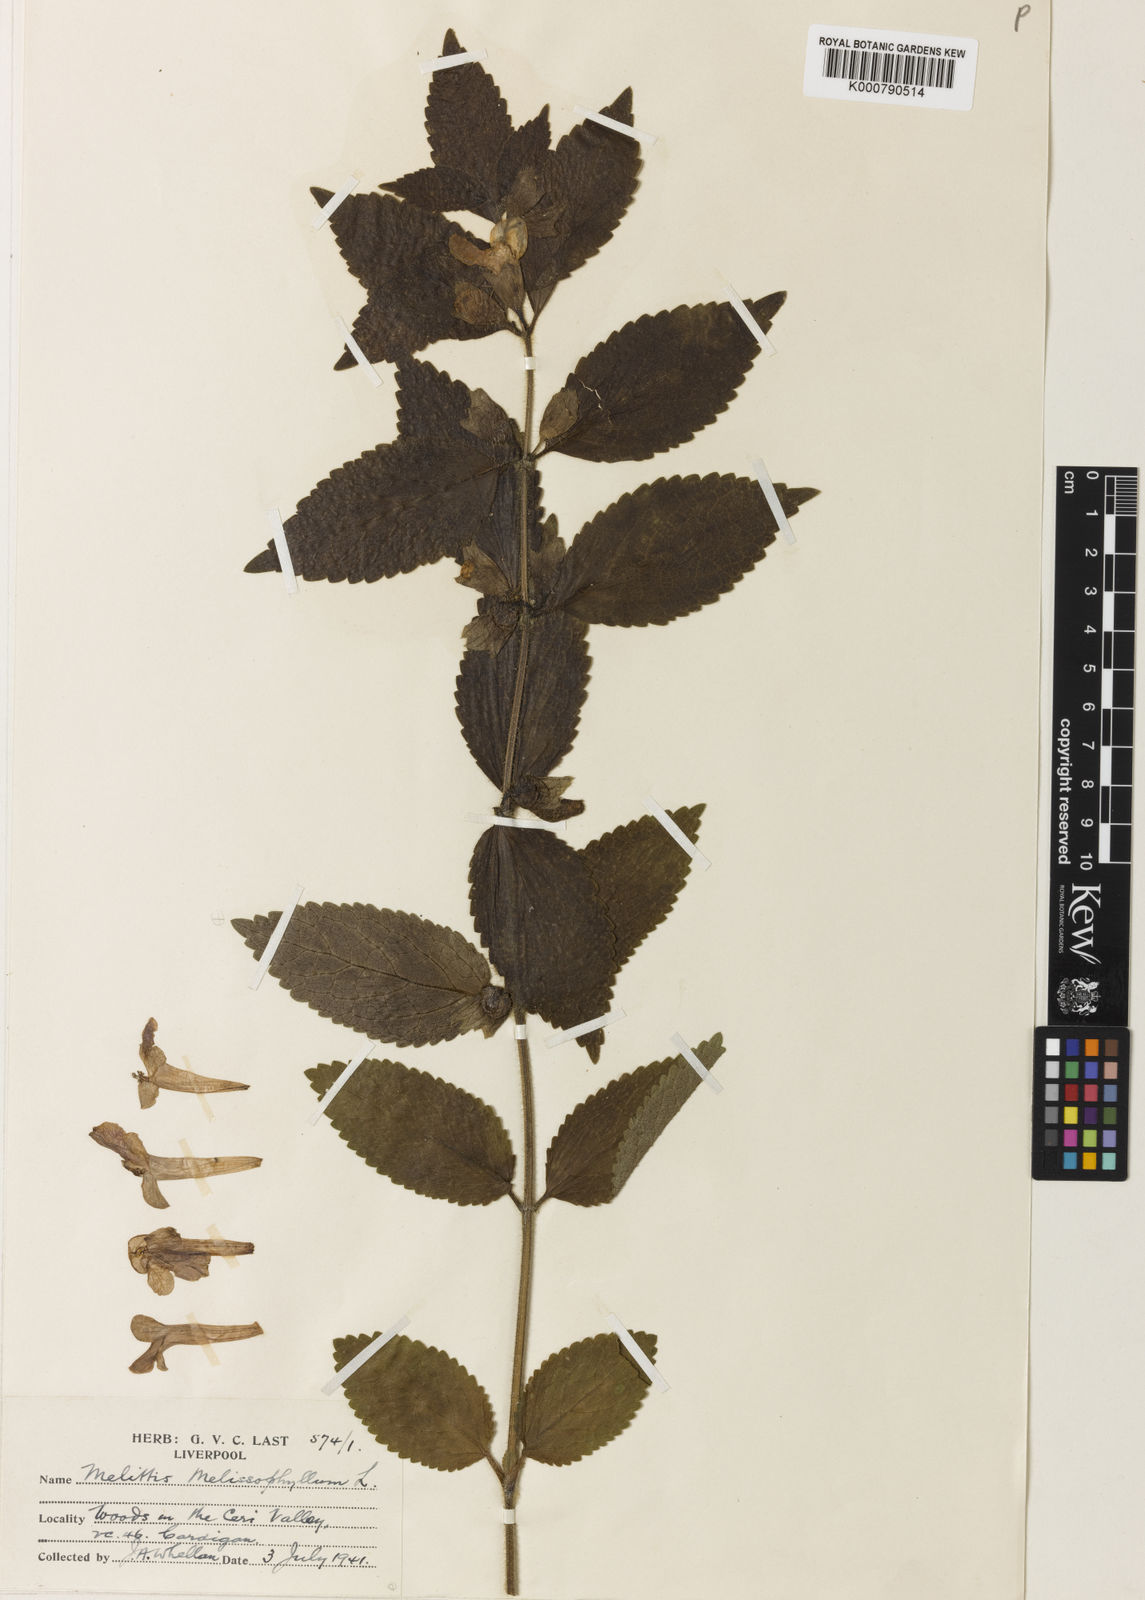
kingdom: Plantae
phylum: Tracheophyta
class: Magnoliopsida
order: Lamiales
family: Lamiaceae
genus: Melittis
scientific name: Melittis melissophyllum
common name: Bastard balm
